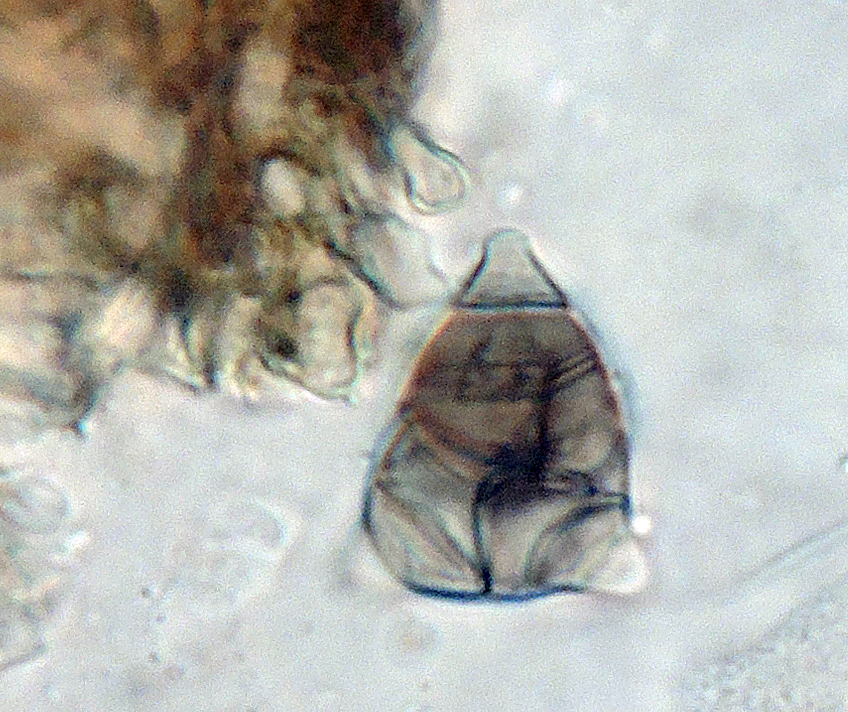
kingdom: Fungi
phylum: Ascomycota
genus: Oncopodiella
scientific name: Oncopodiella trigonella
